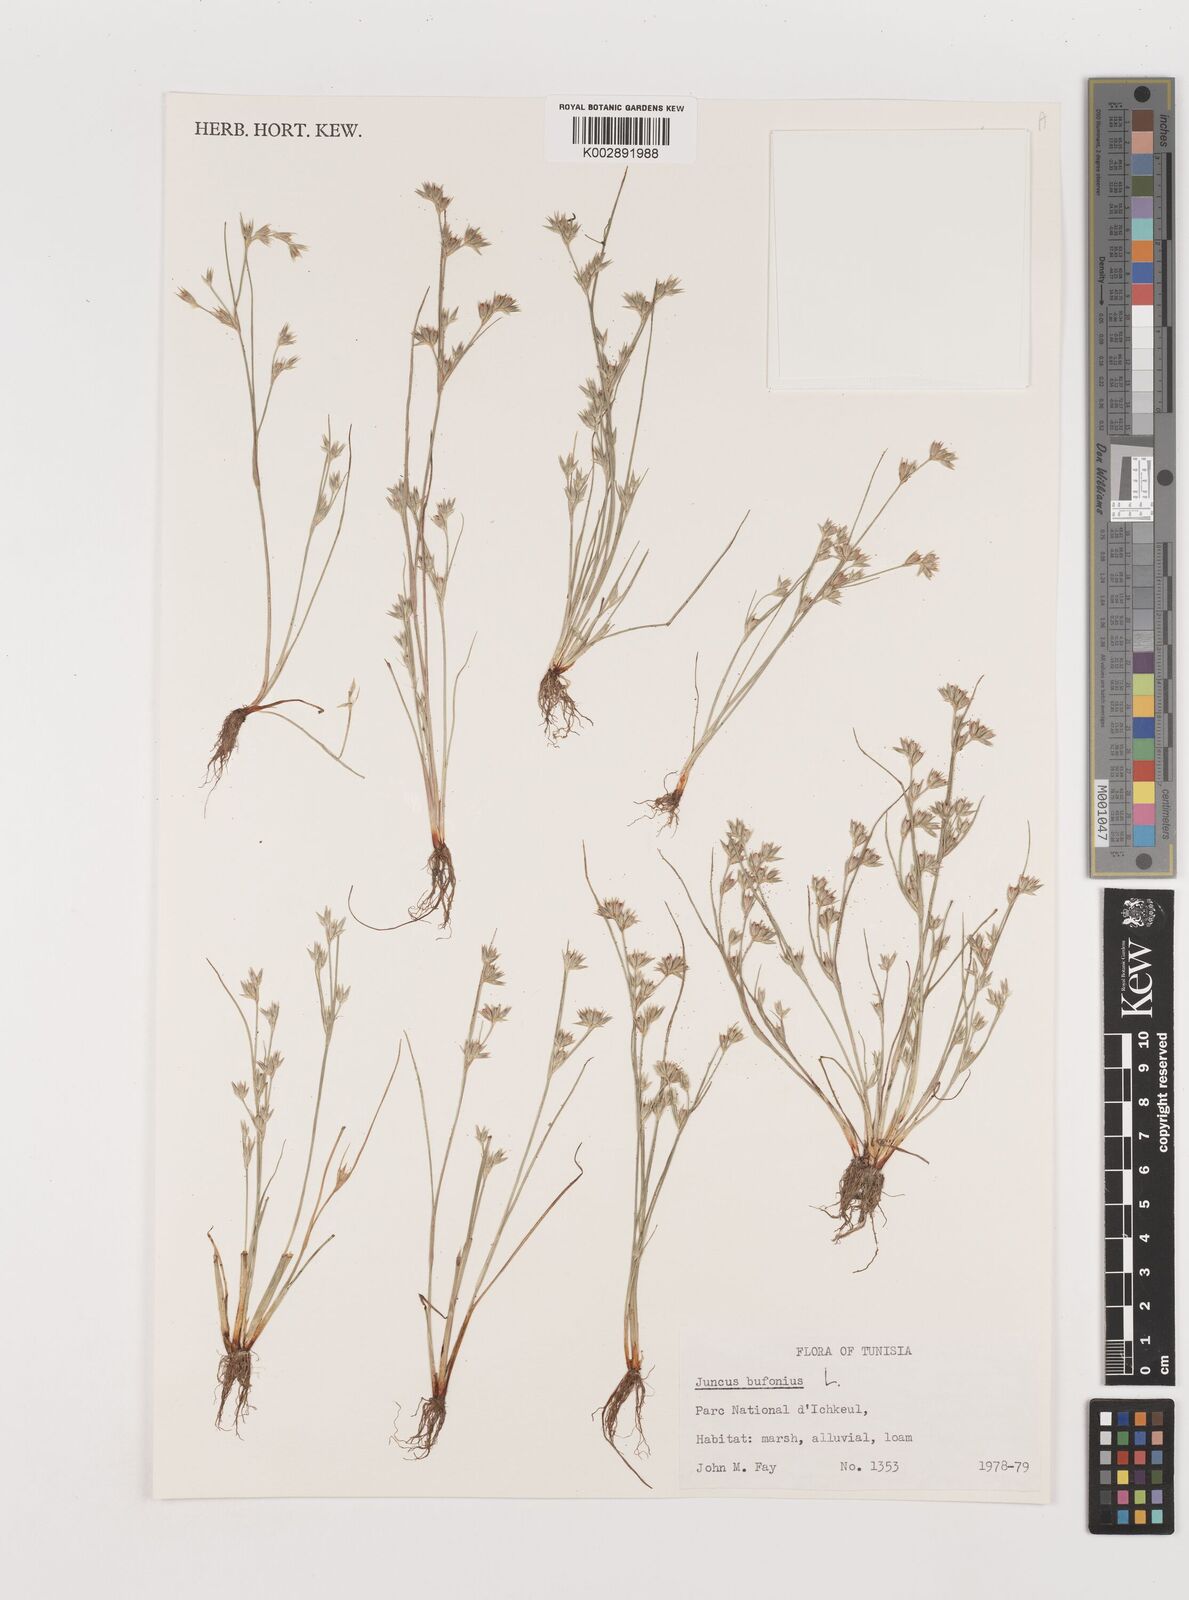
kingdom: Plantae
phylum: Tracheophyta
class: Liliopsida
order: Poales
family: Juncaceae
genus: Juncus
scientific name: Juncus bufonius
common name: Toad rush
